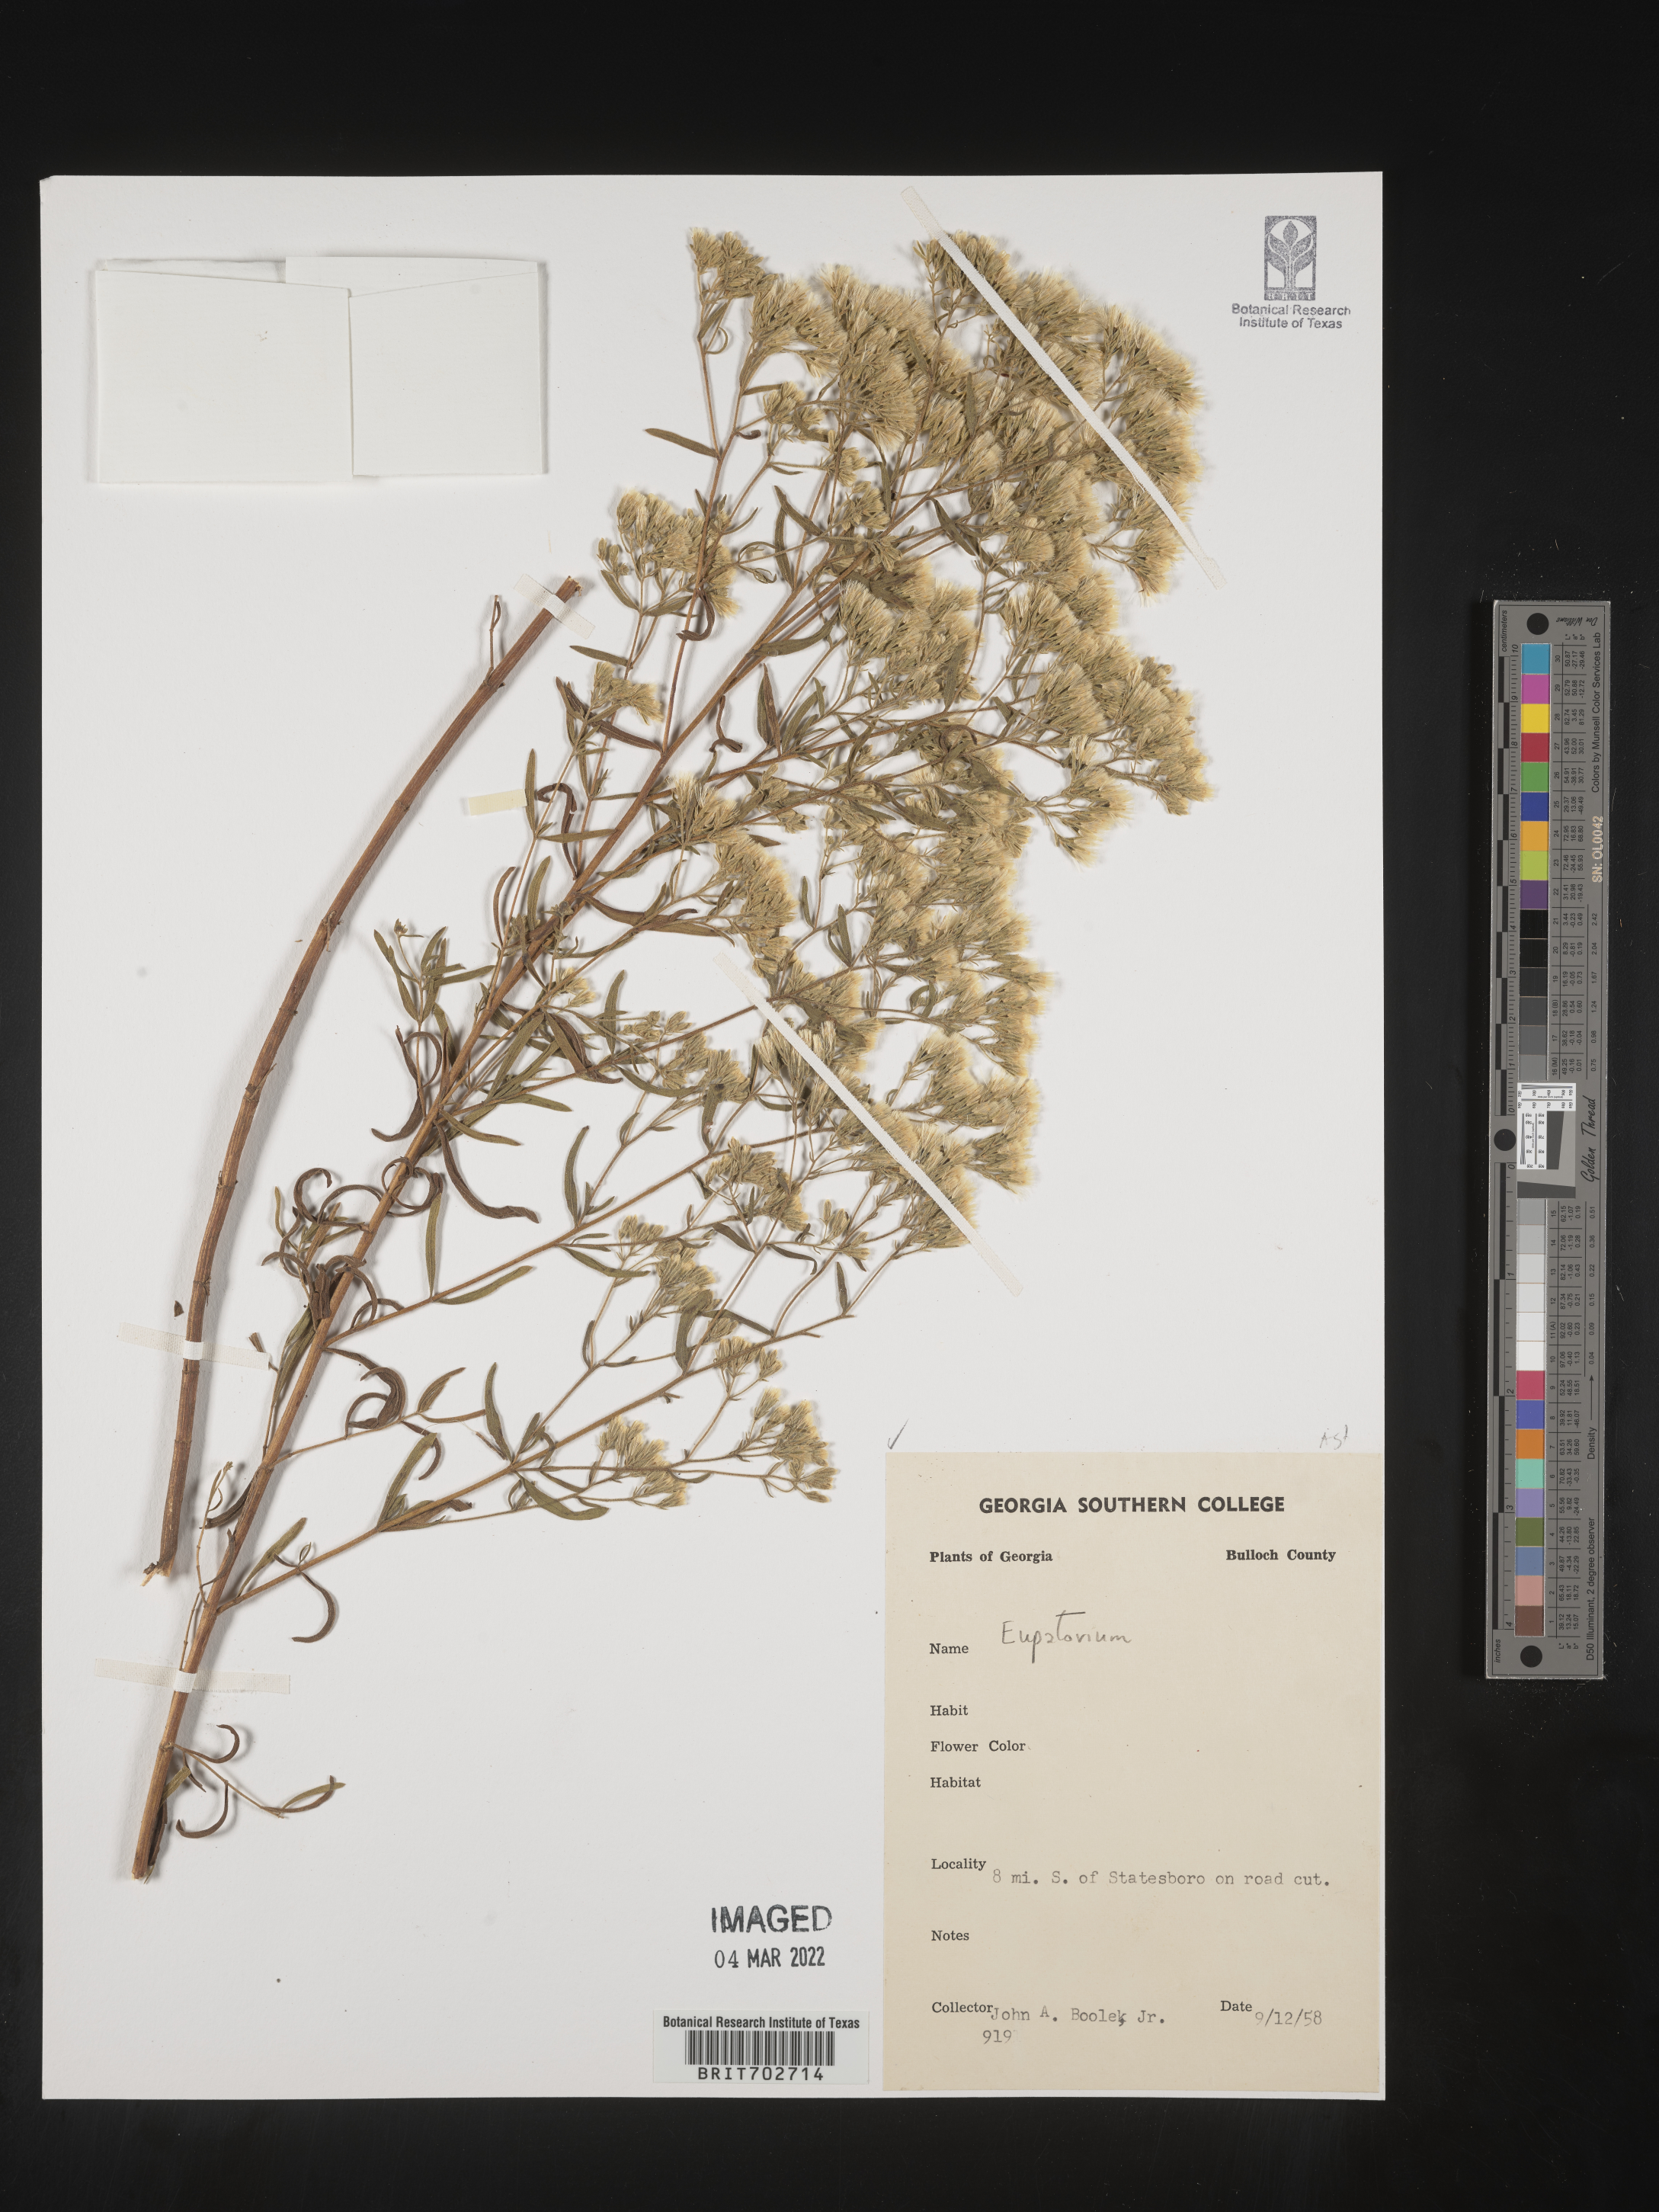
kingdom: Plantae
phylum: Tracheophyta
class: Magnoliopsida
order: Asterales
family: Asteraceae
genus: Eupatorium
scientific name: Eupatorium
